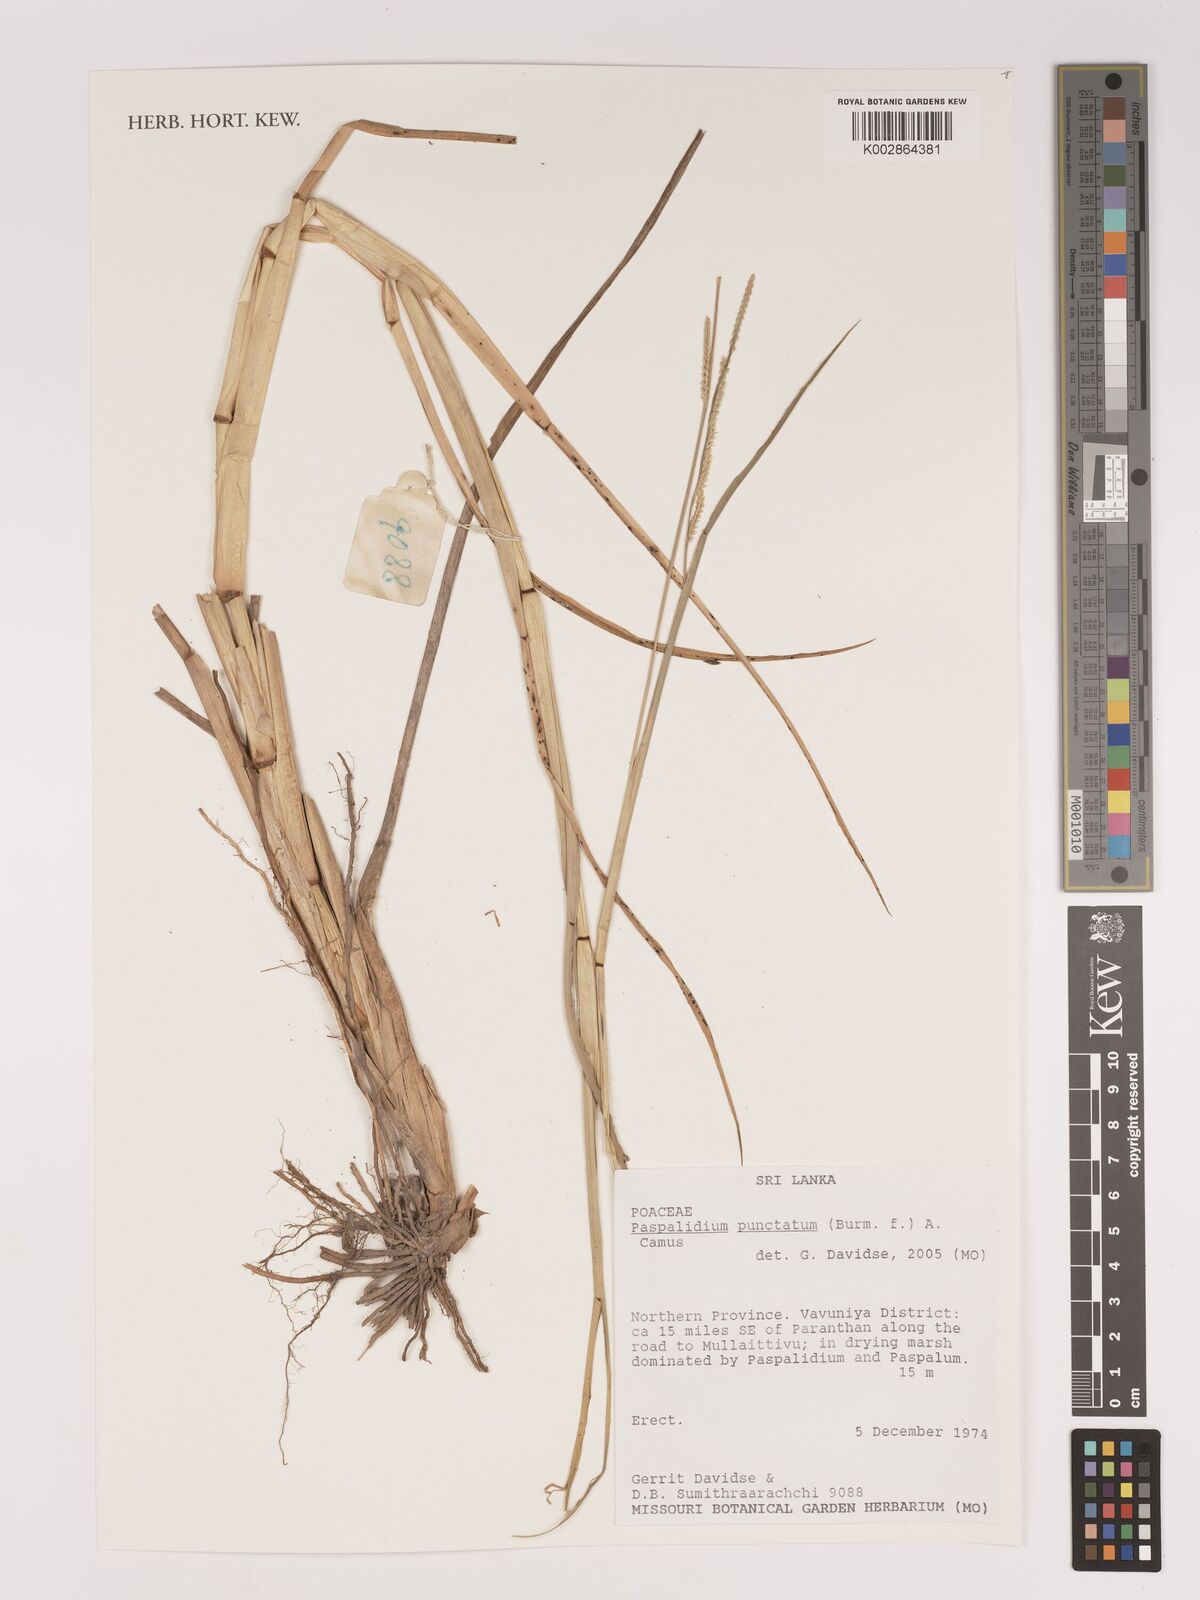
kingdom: Plantae
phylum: Tracheophyta
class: Liliopsida
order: Poales
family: Poaceae
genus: Setaria
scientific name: Setaria punctata
